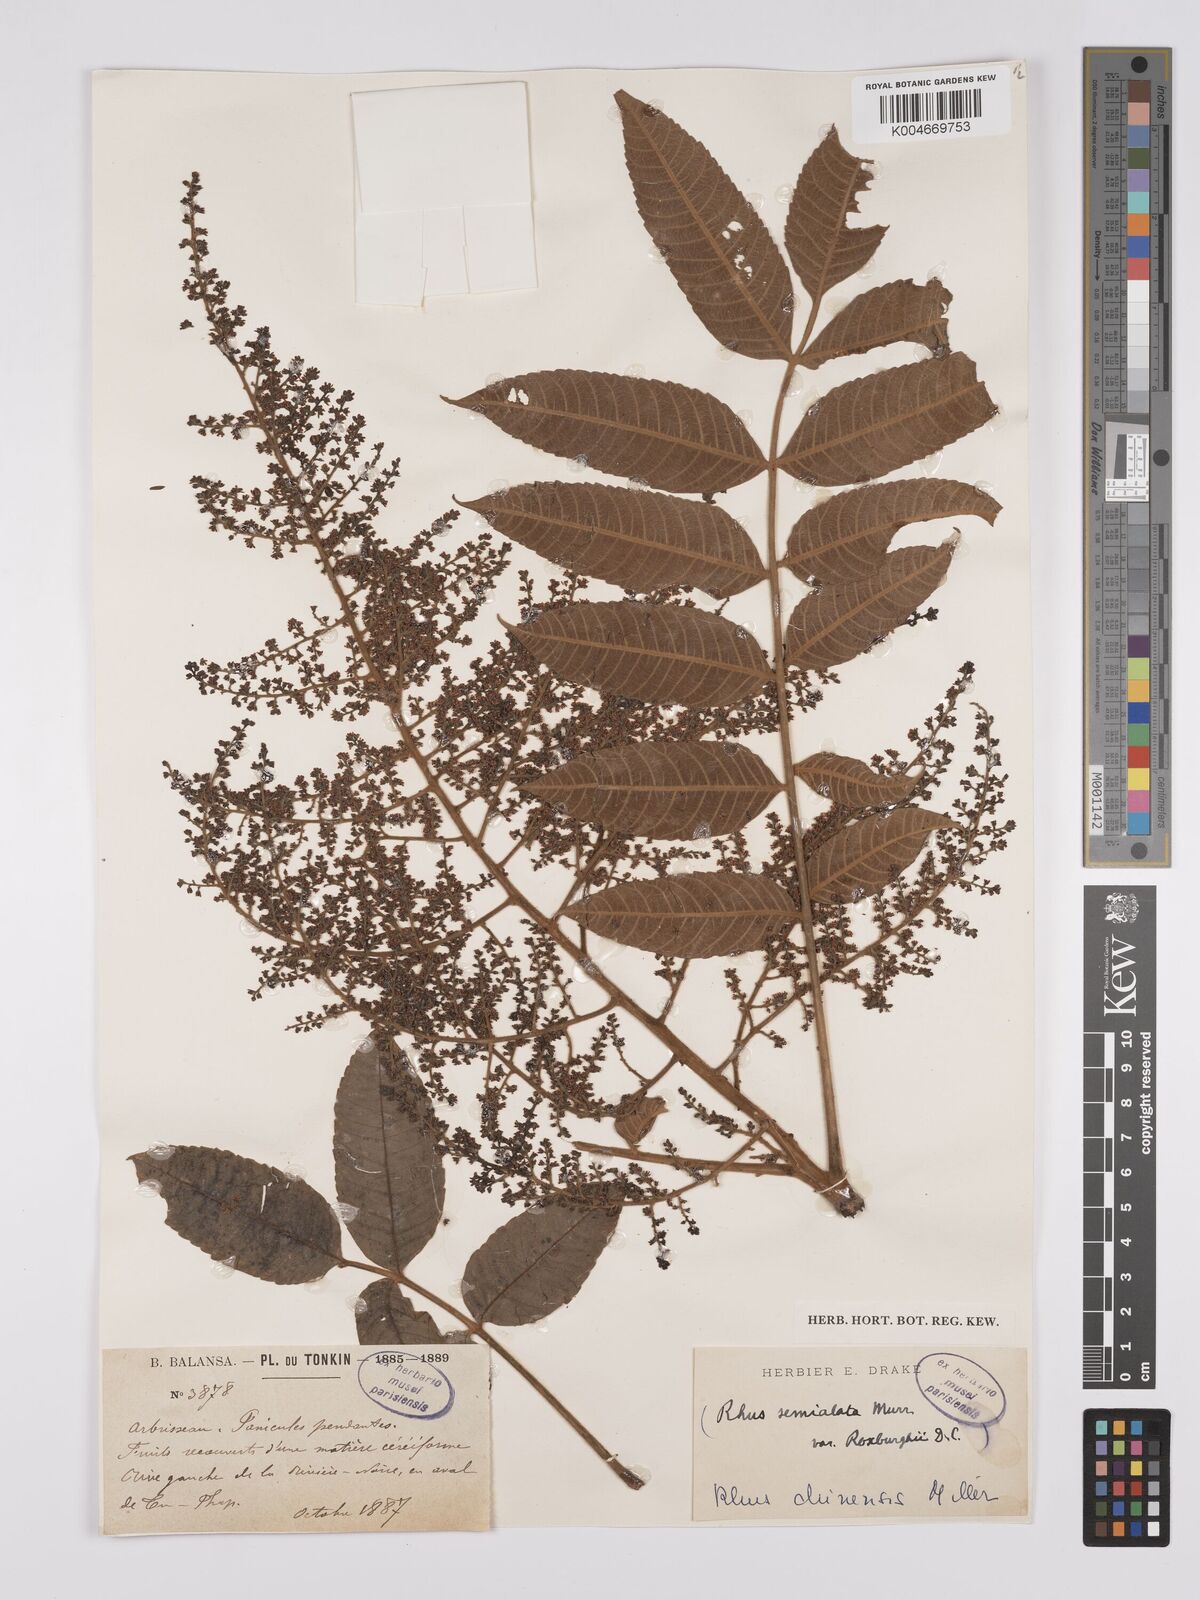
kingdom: Plantae
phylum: Tracheophyta
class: Magnoliopsida
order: Sapindales
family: Anacardiaceae
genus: Rhus
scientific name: Rhus chinensis
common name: Chinese gall
